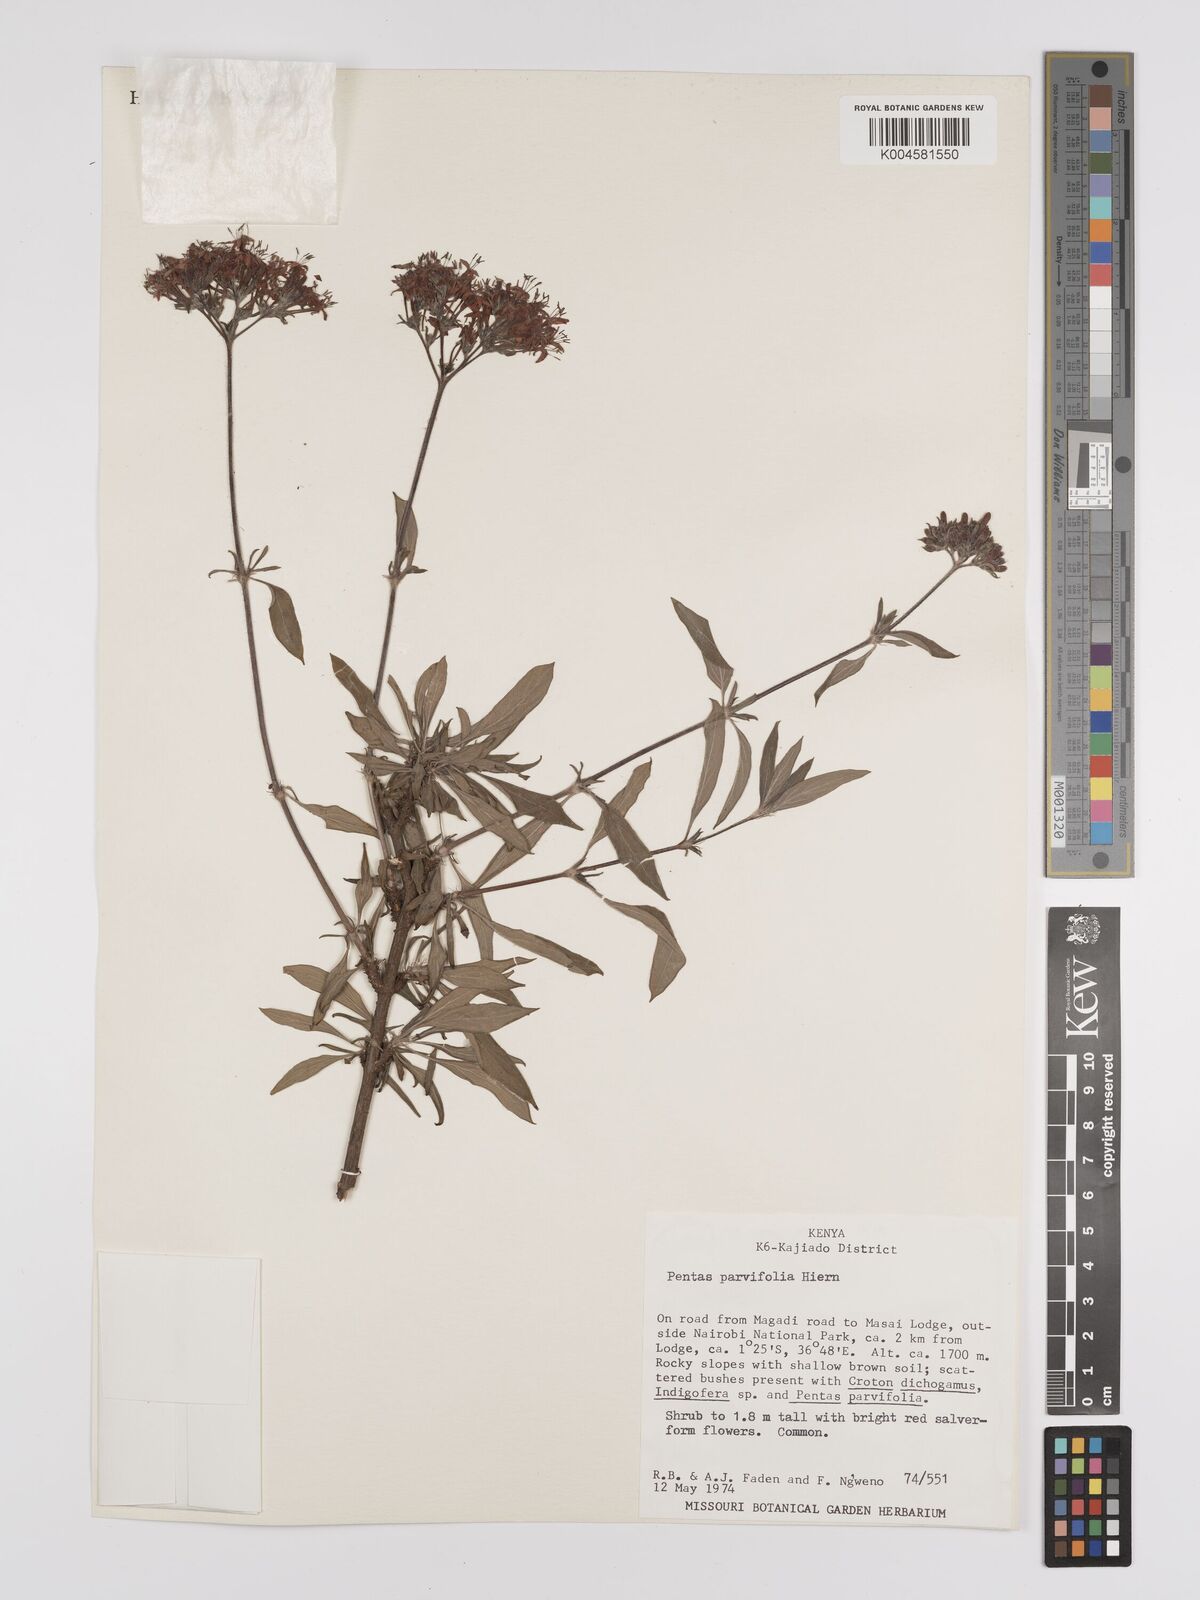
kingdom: Plantae
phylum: Tracheophyta
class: Magnoliopsida
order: Gentianales
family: Rubiaceae
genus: Rhodopentas
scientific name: Rhodopentas parvifolia
